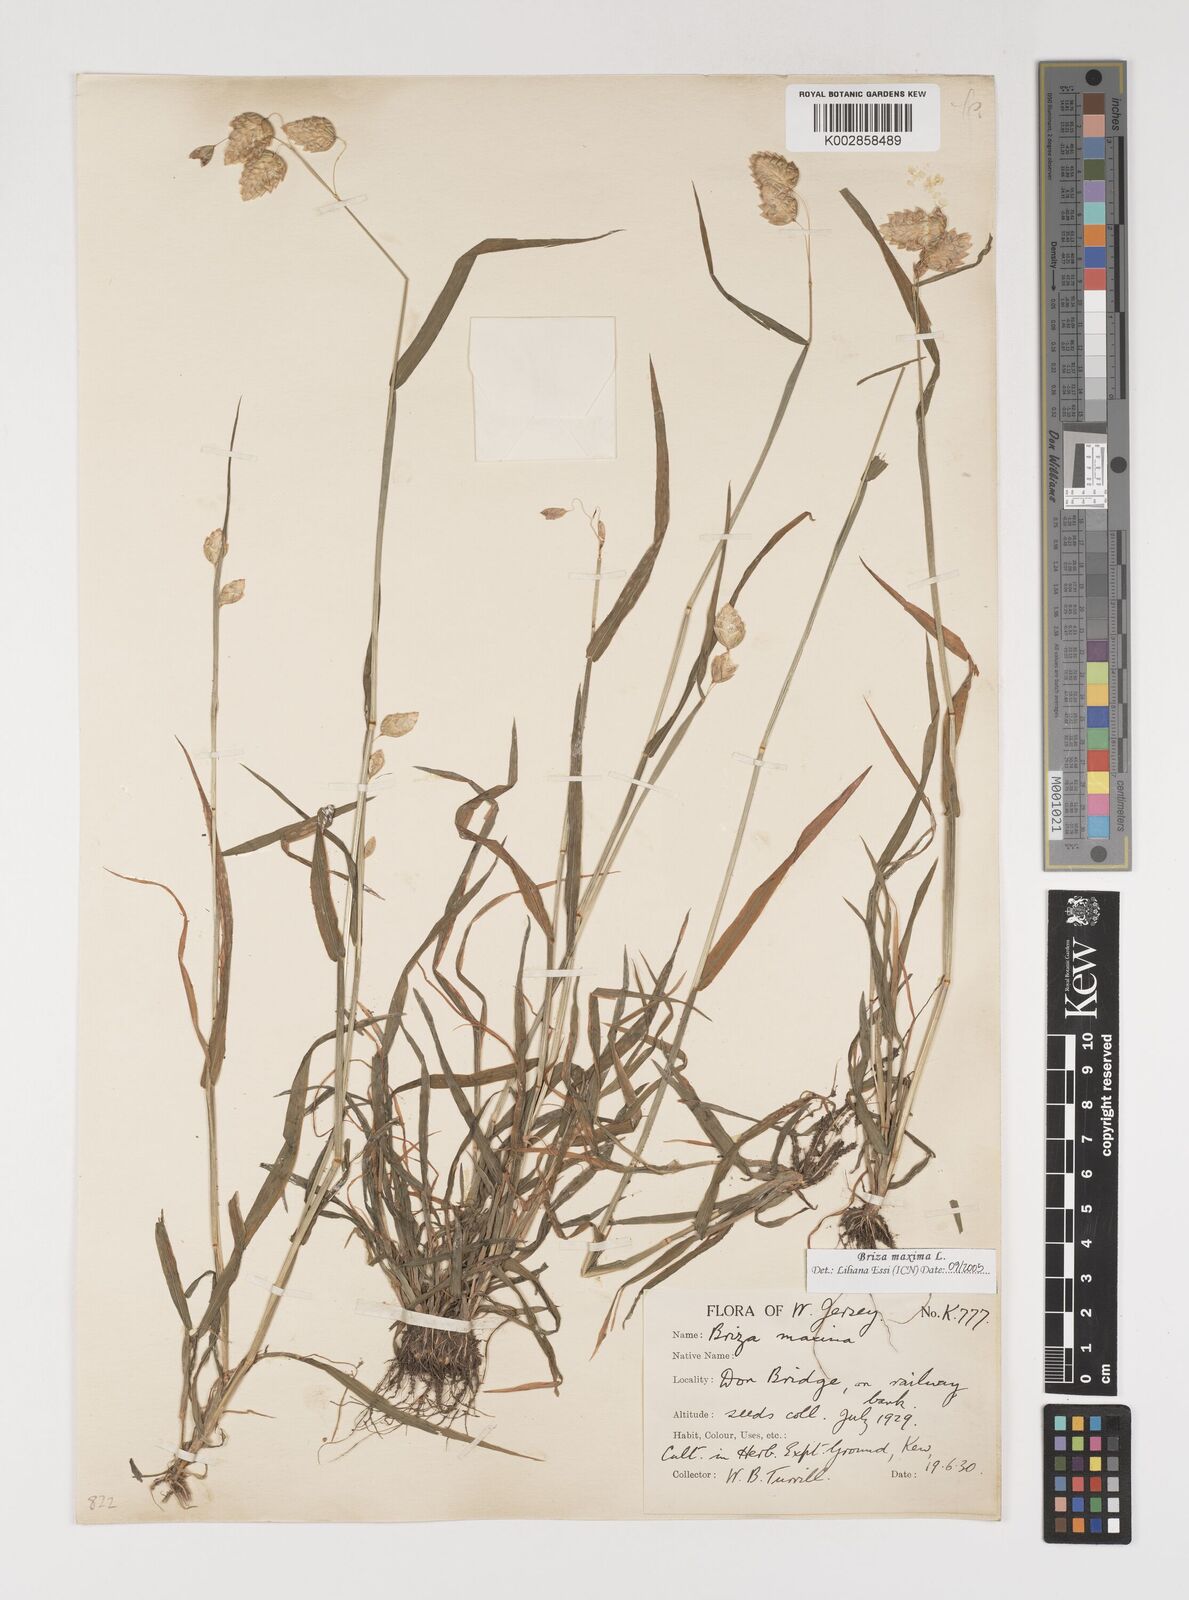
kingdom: Plantae
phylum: Tracheophyta
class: Liliopsida
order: Poales
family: Poaceae
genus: Briza
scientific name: Briza maxima
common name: Big quakinggrass
